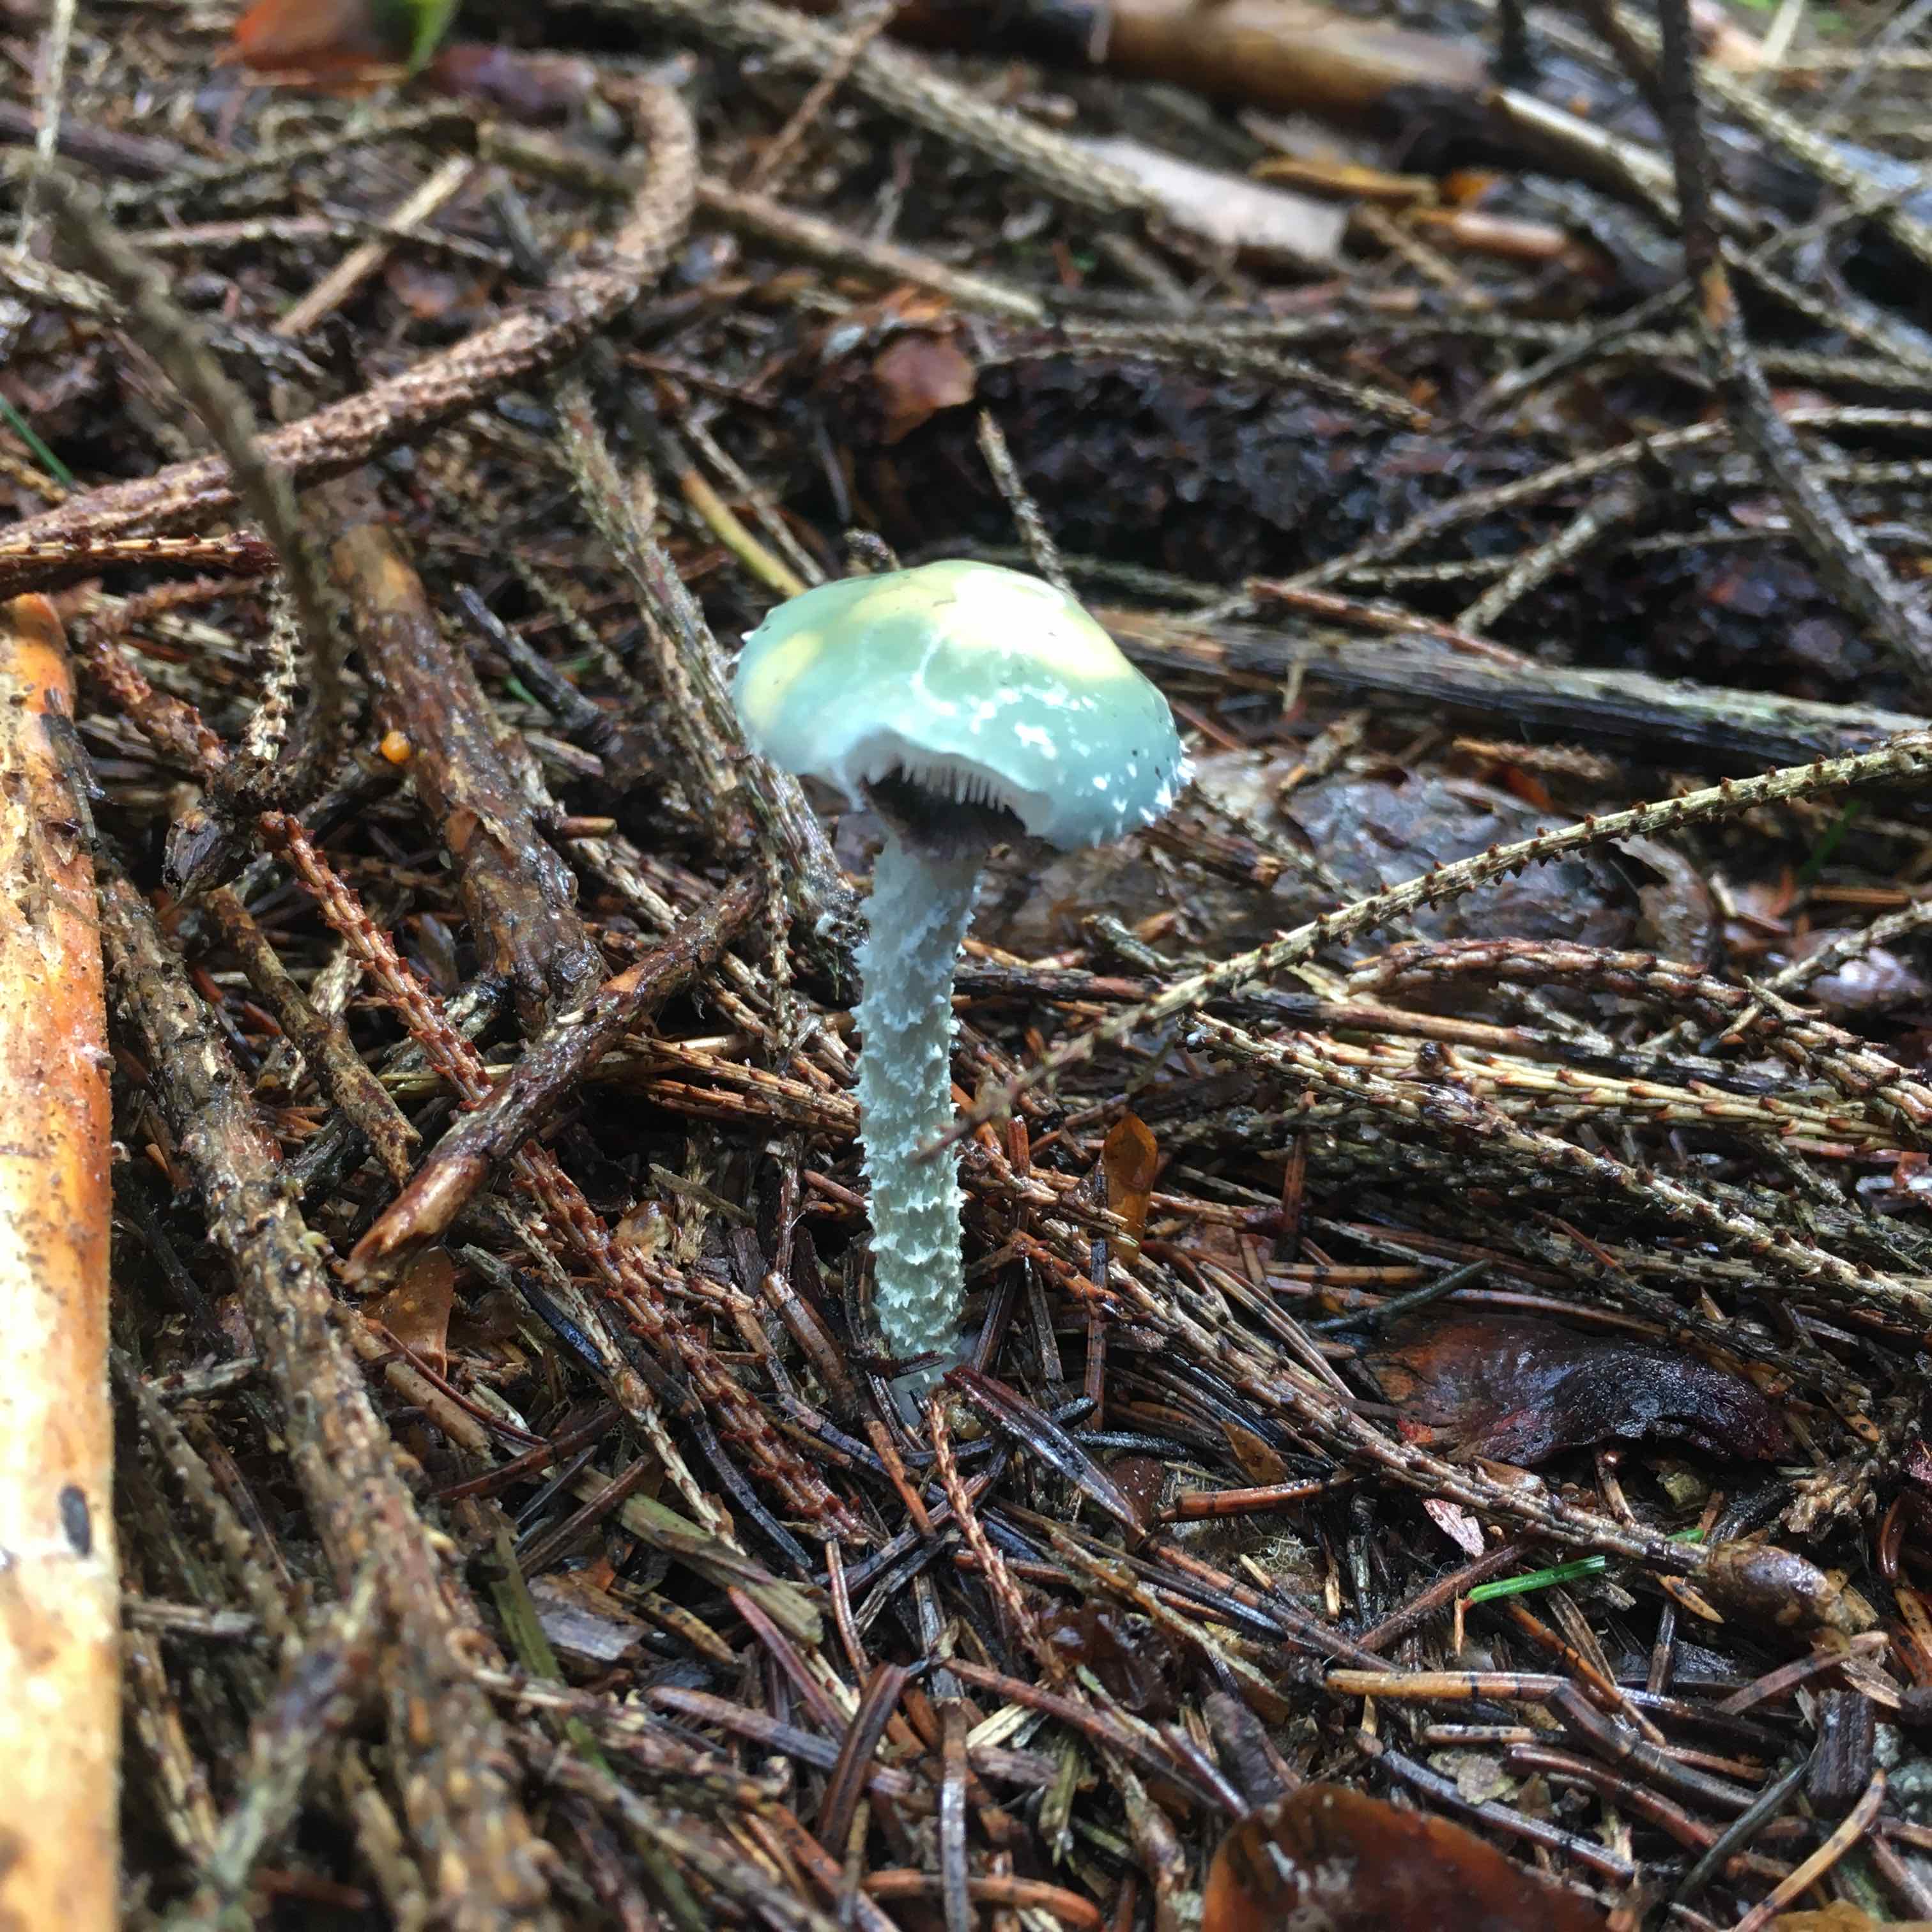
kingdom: Fungi
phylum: Basidiomycota
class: Agaricomycetes
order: Agaricales
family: Strophariaceae
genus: Stropharia
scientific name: Stropharia aeruginosa
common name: spanskgrøn bredblad
